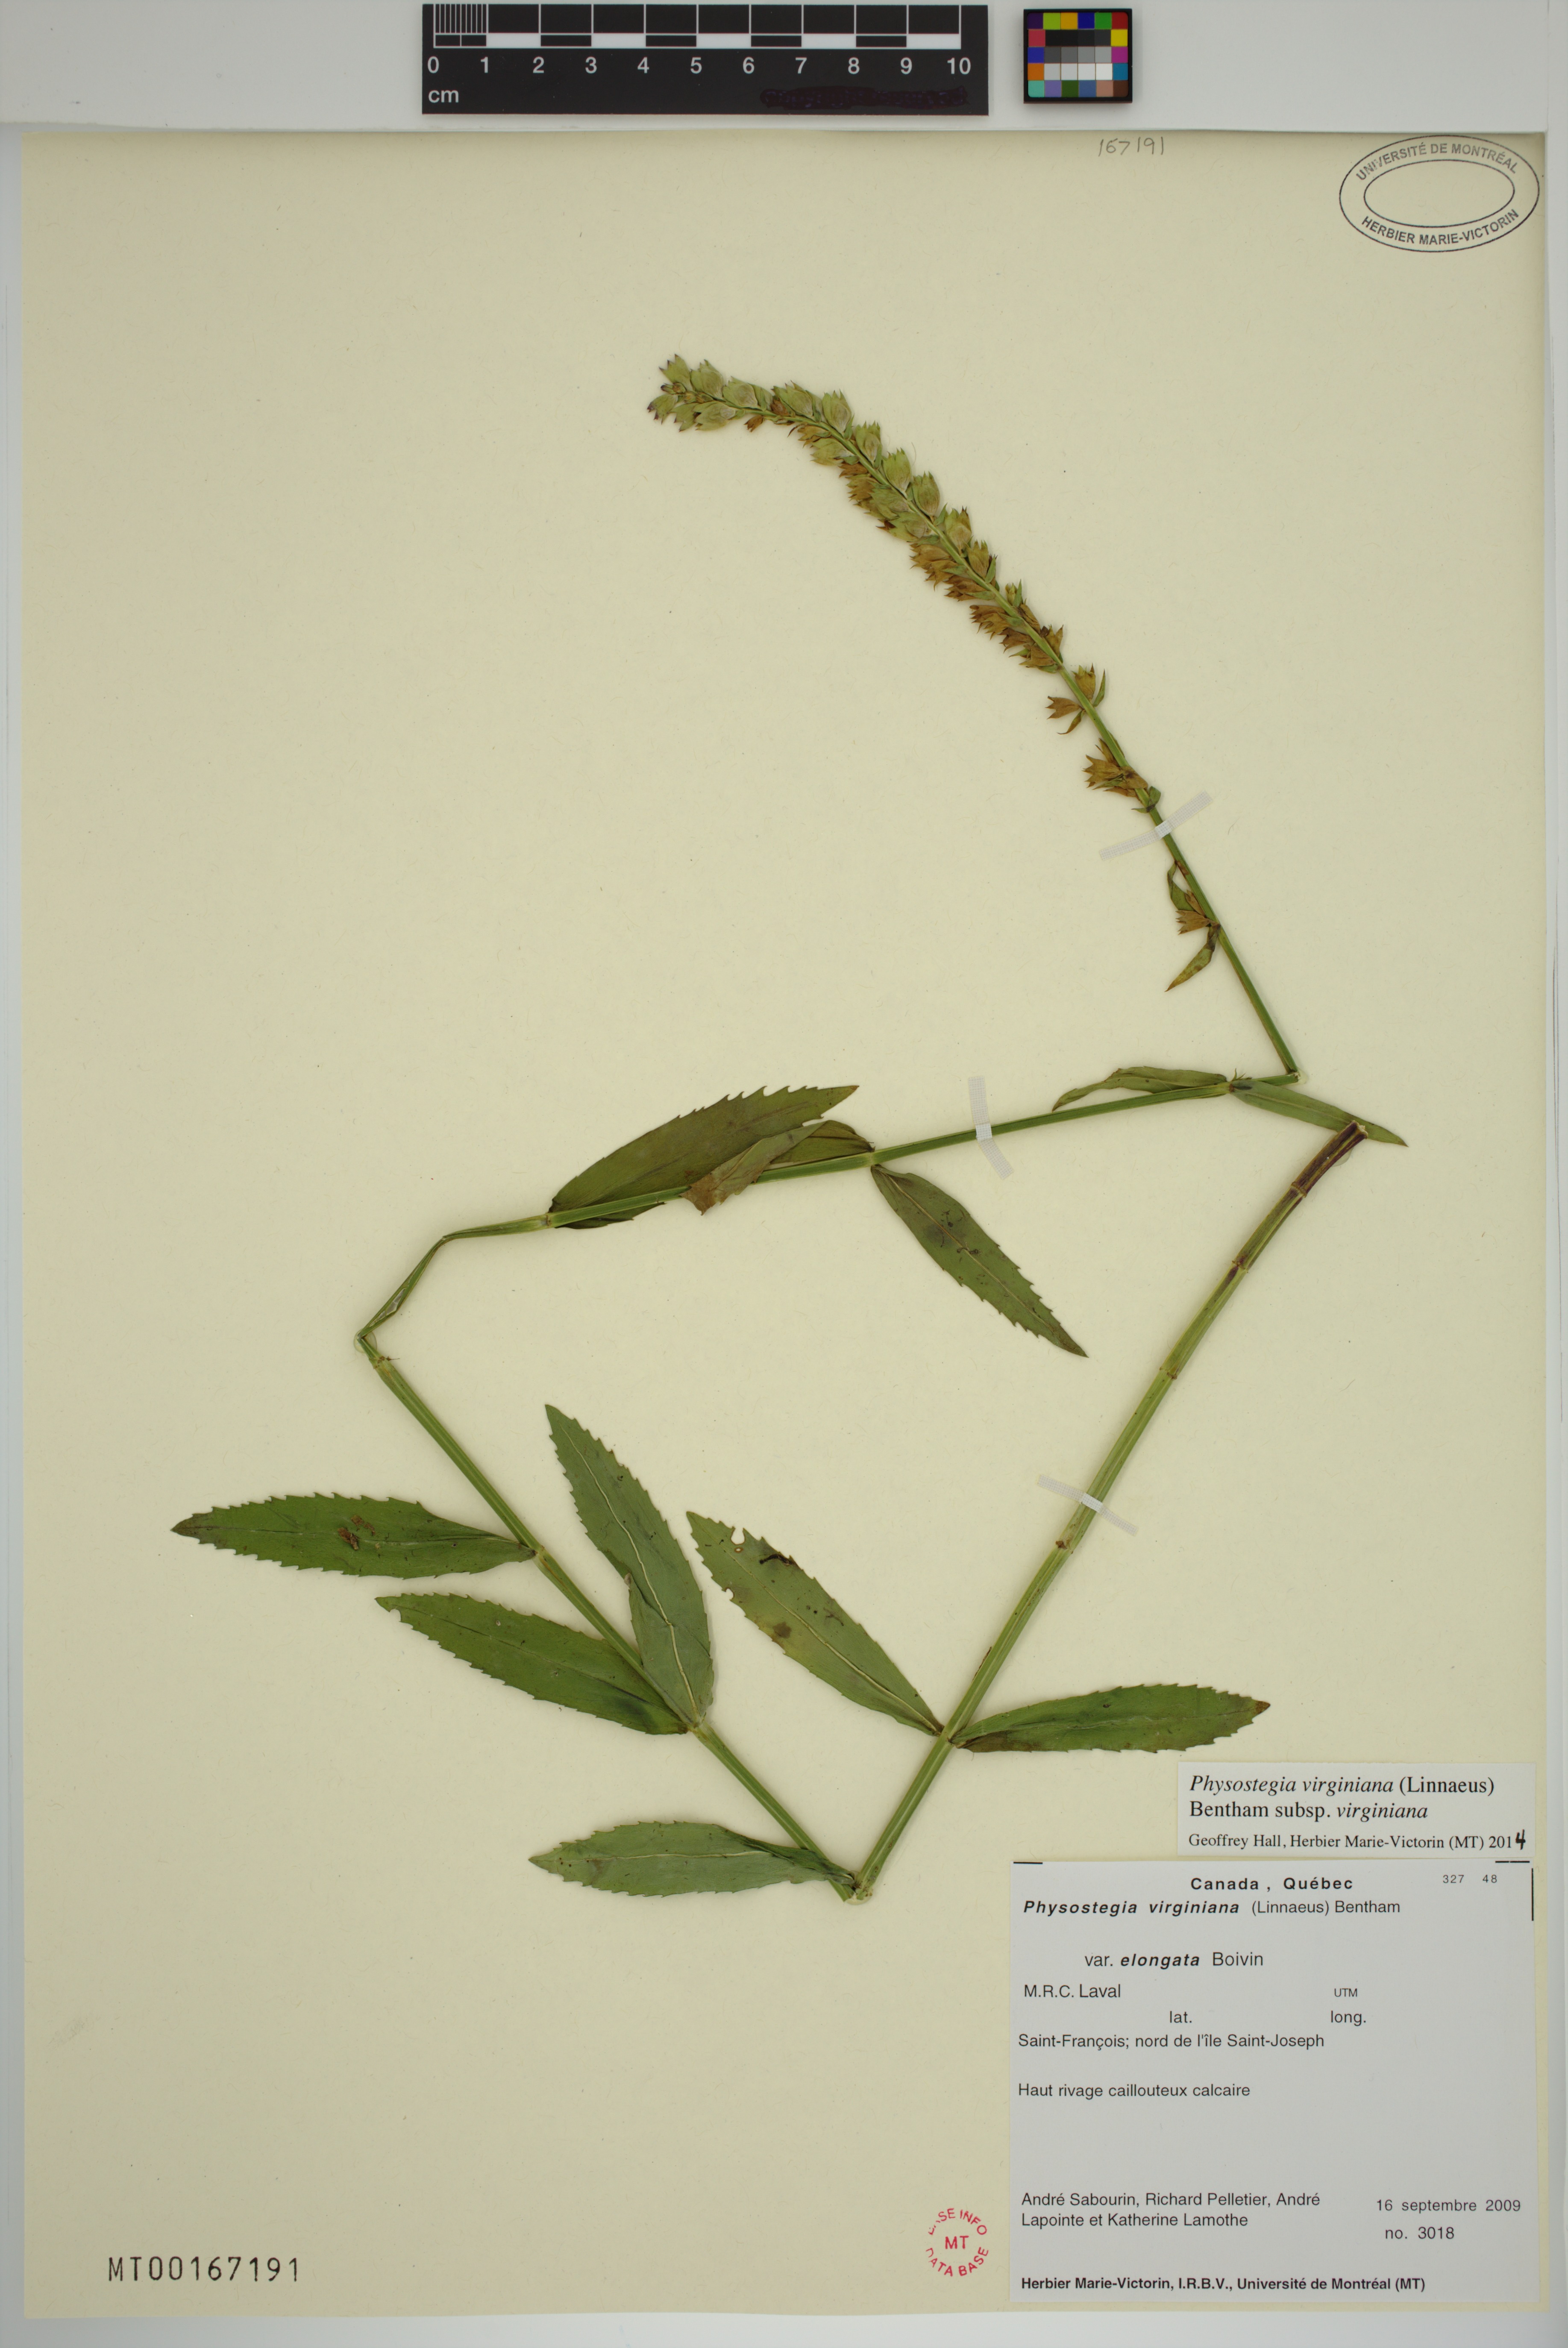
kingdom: Plantae
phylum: Tracheophyta
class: Magnoliopsida
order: Lamiales
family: Lamiaceae
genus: Physostegia
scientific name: Physostegia virginiana
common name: Obedient-plant
